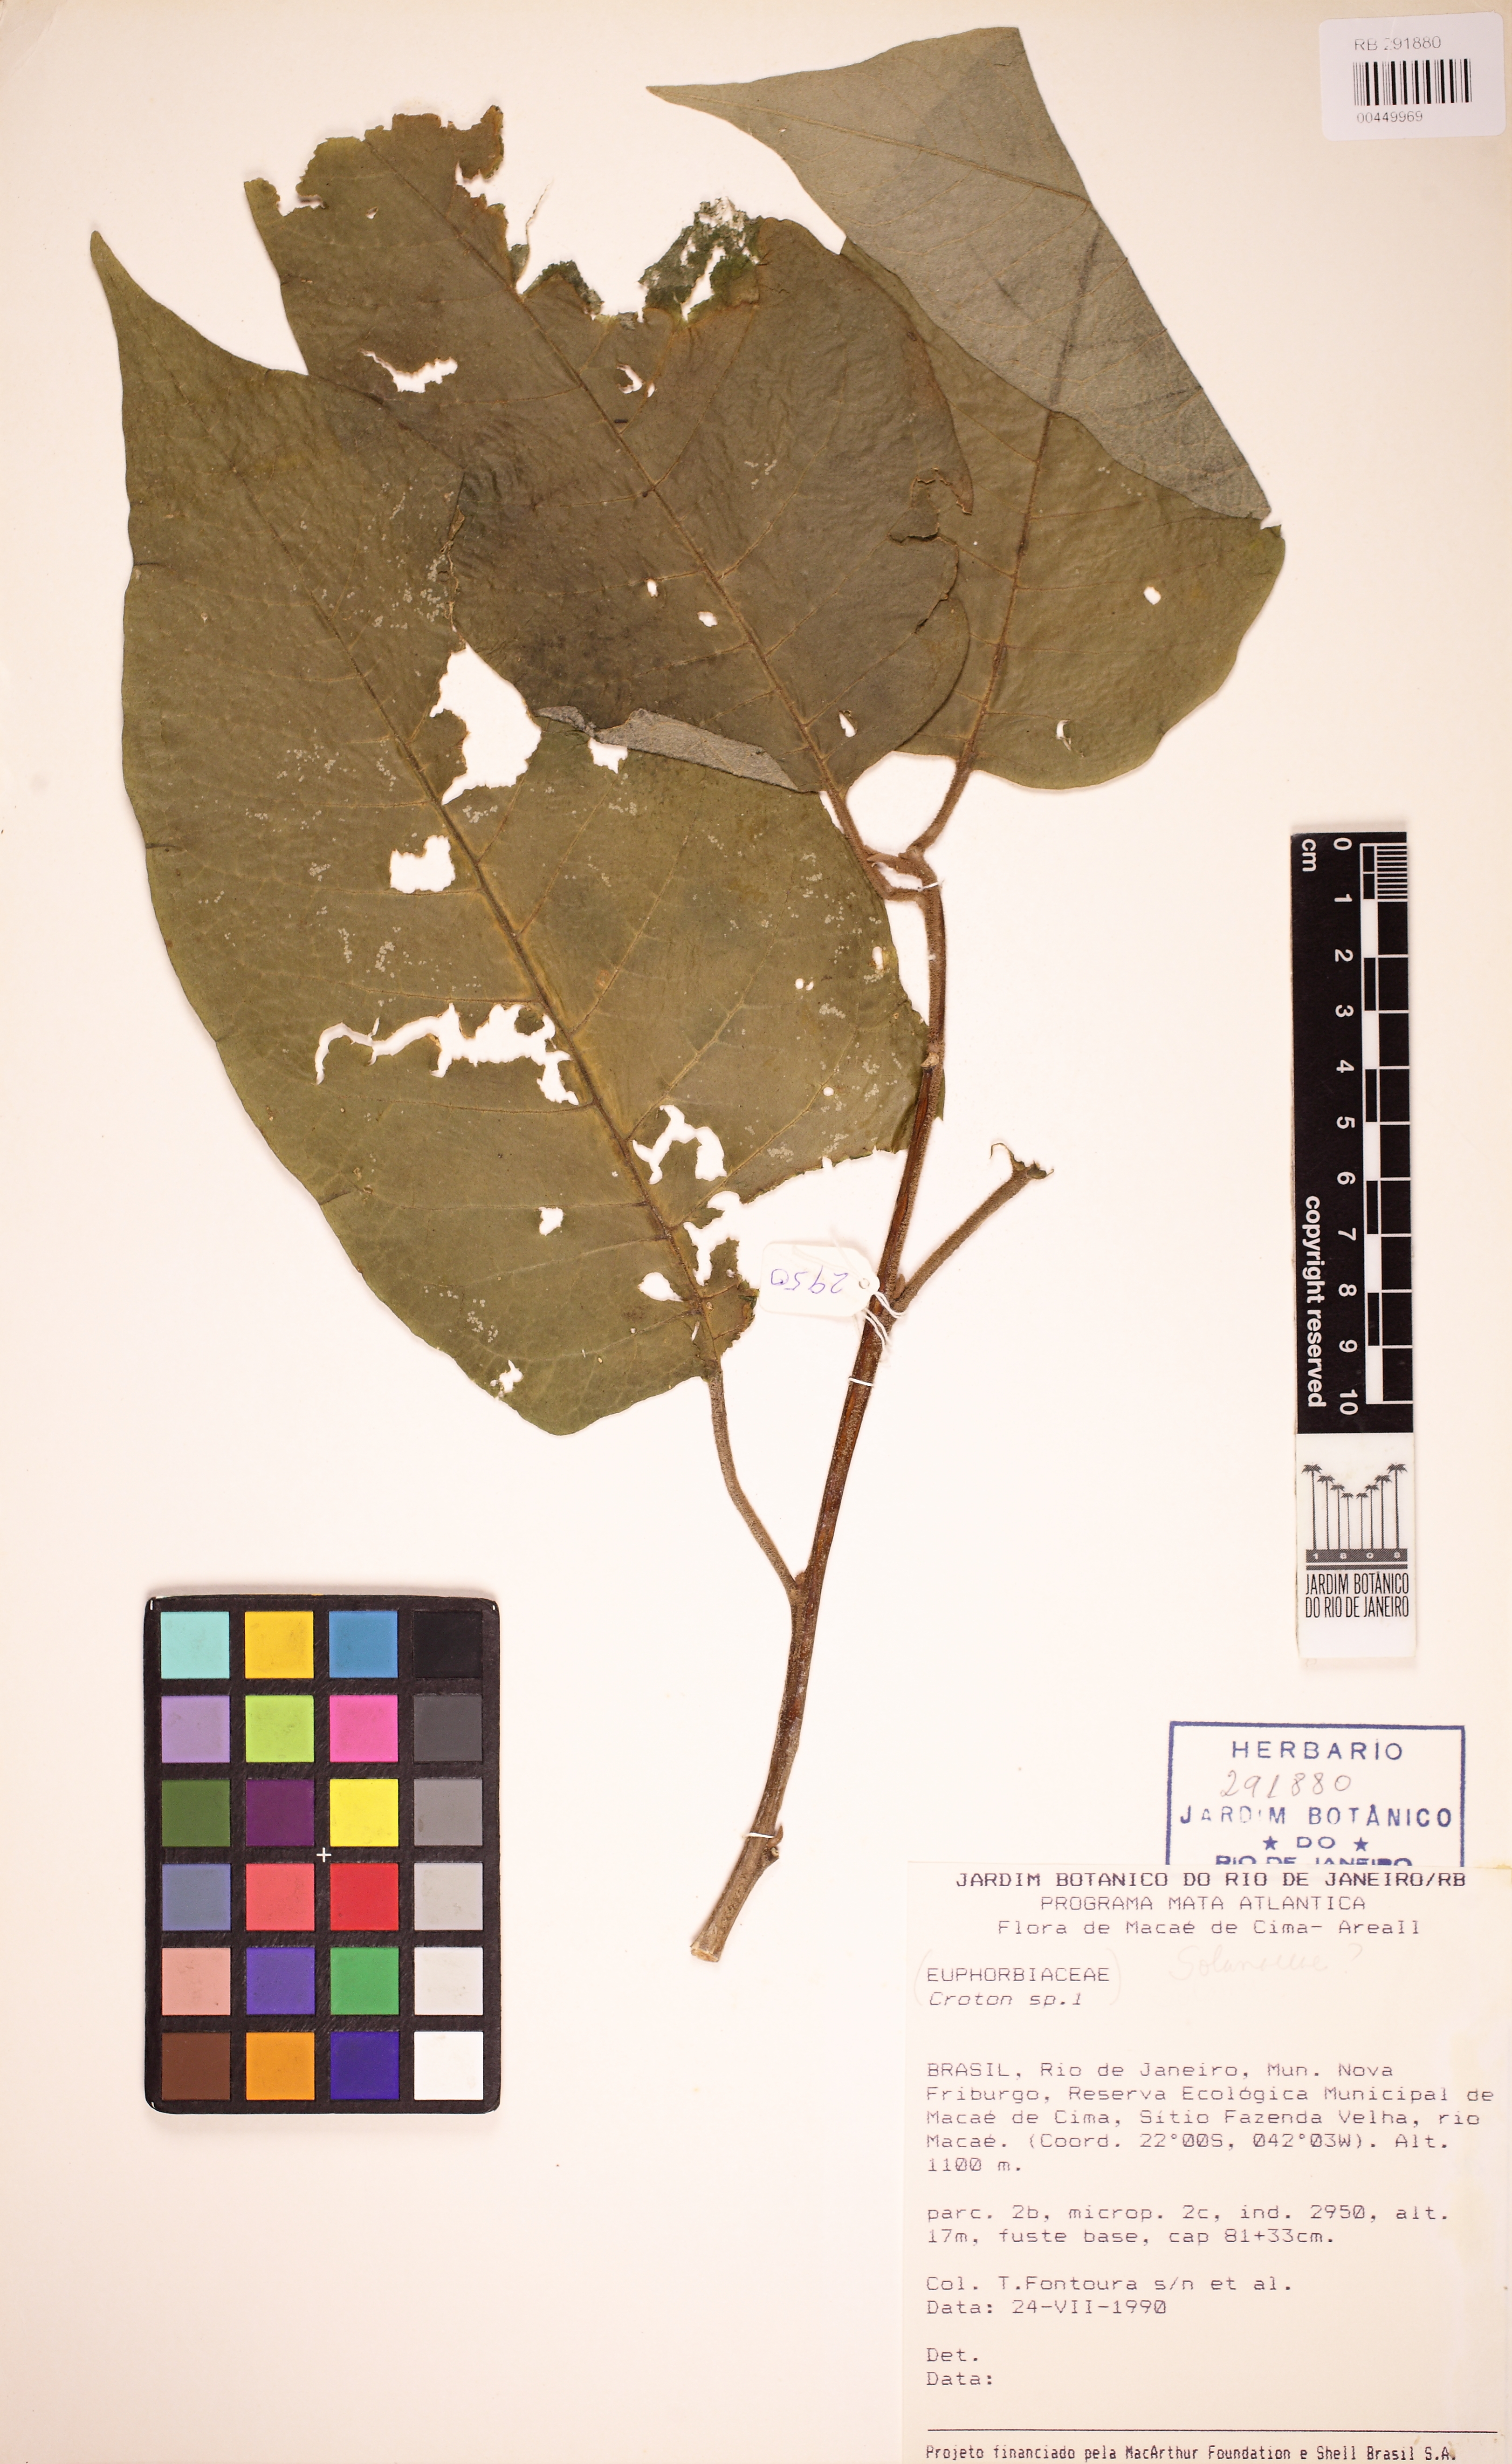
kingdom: Plantae
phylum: Tracheophyta
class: Magnoliopsida
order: Malpighiales
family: Euphorbiaceae
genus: Croton
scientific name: Croton
